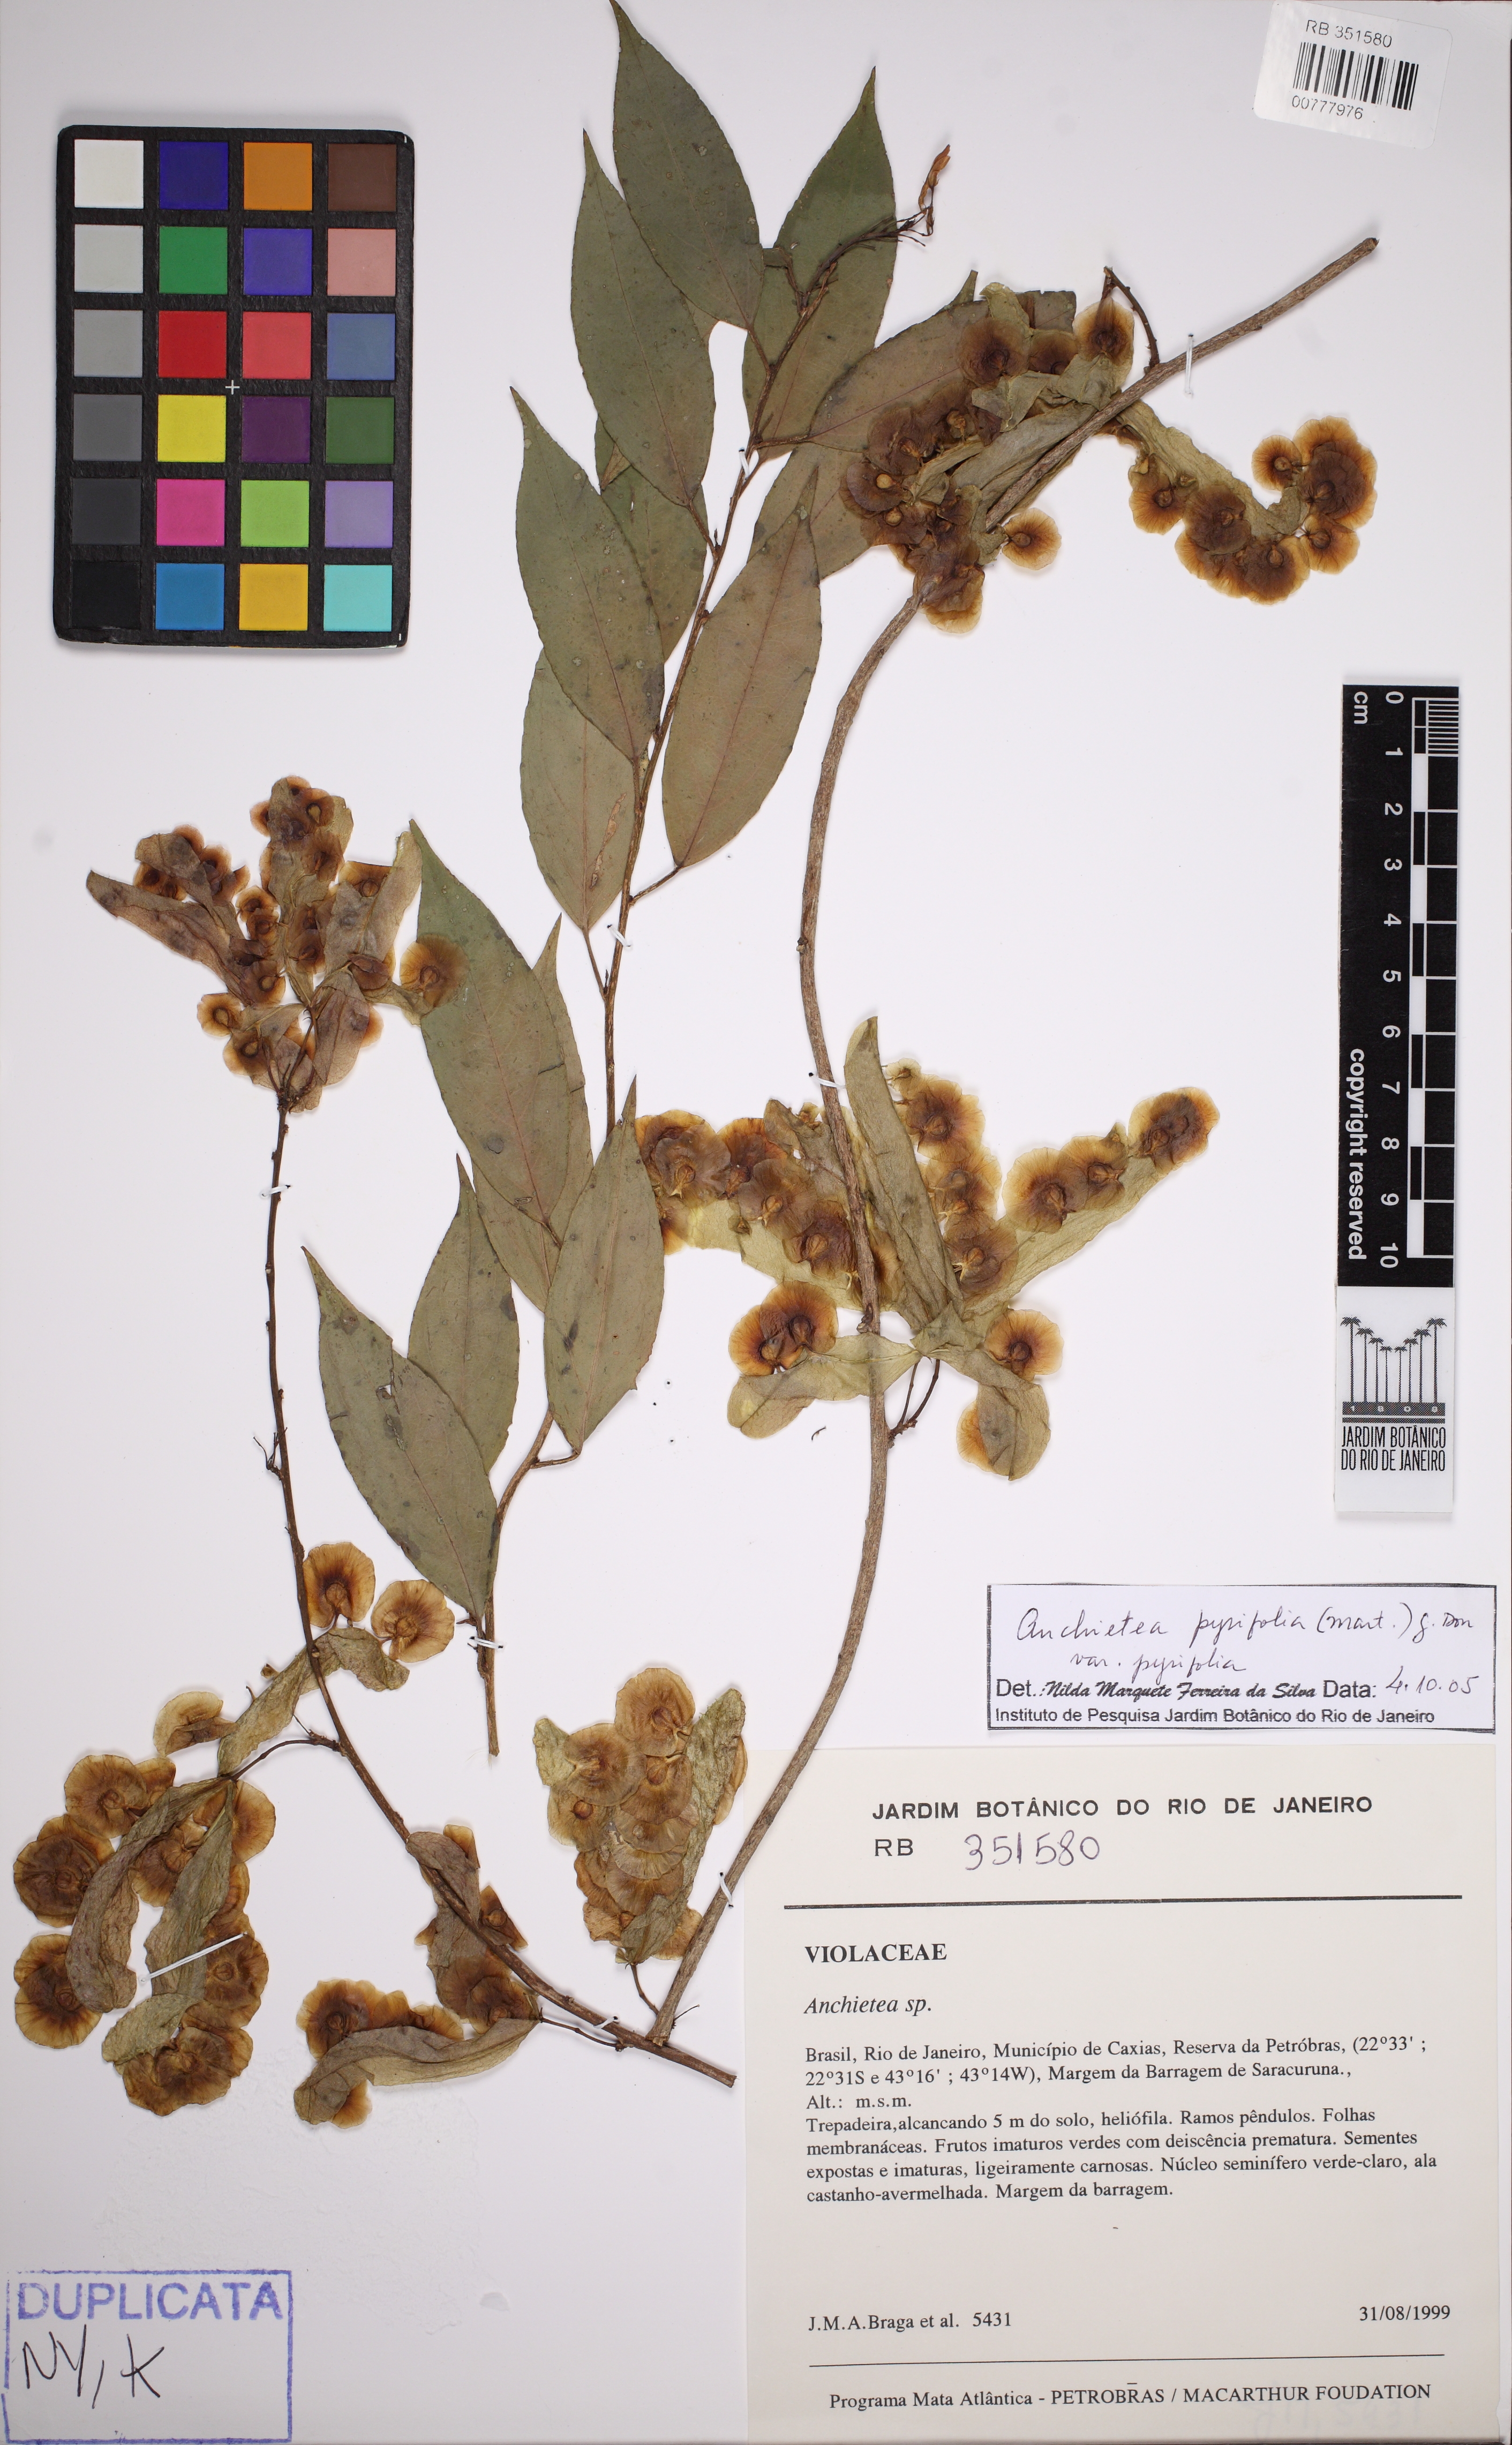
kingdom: Plantae
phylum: Tracheophyta
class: Magnoliopsida
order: Malpighiales
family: Violaceae
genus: Anchietea
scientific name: Anchietea pyrifolia
